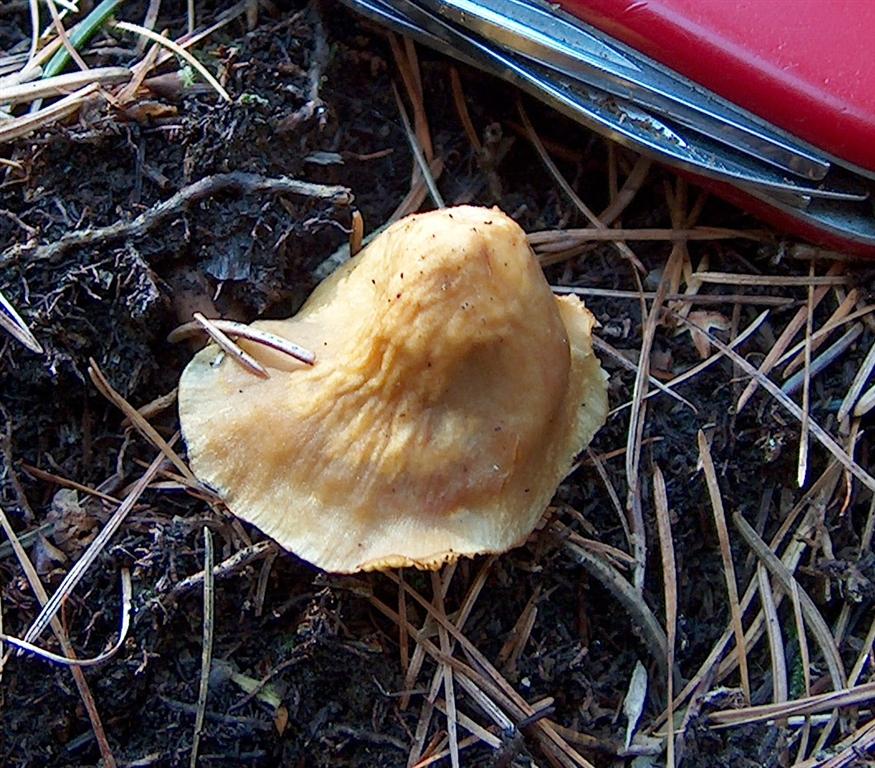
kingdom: Fungi
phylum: Basidiomycota
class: Agaricomycetes
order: Agaricales
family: Strophariaceae
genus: Hypholoma
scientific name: Hypholoma capnoides
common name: gran-svovlhat
